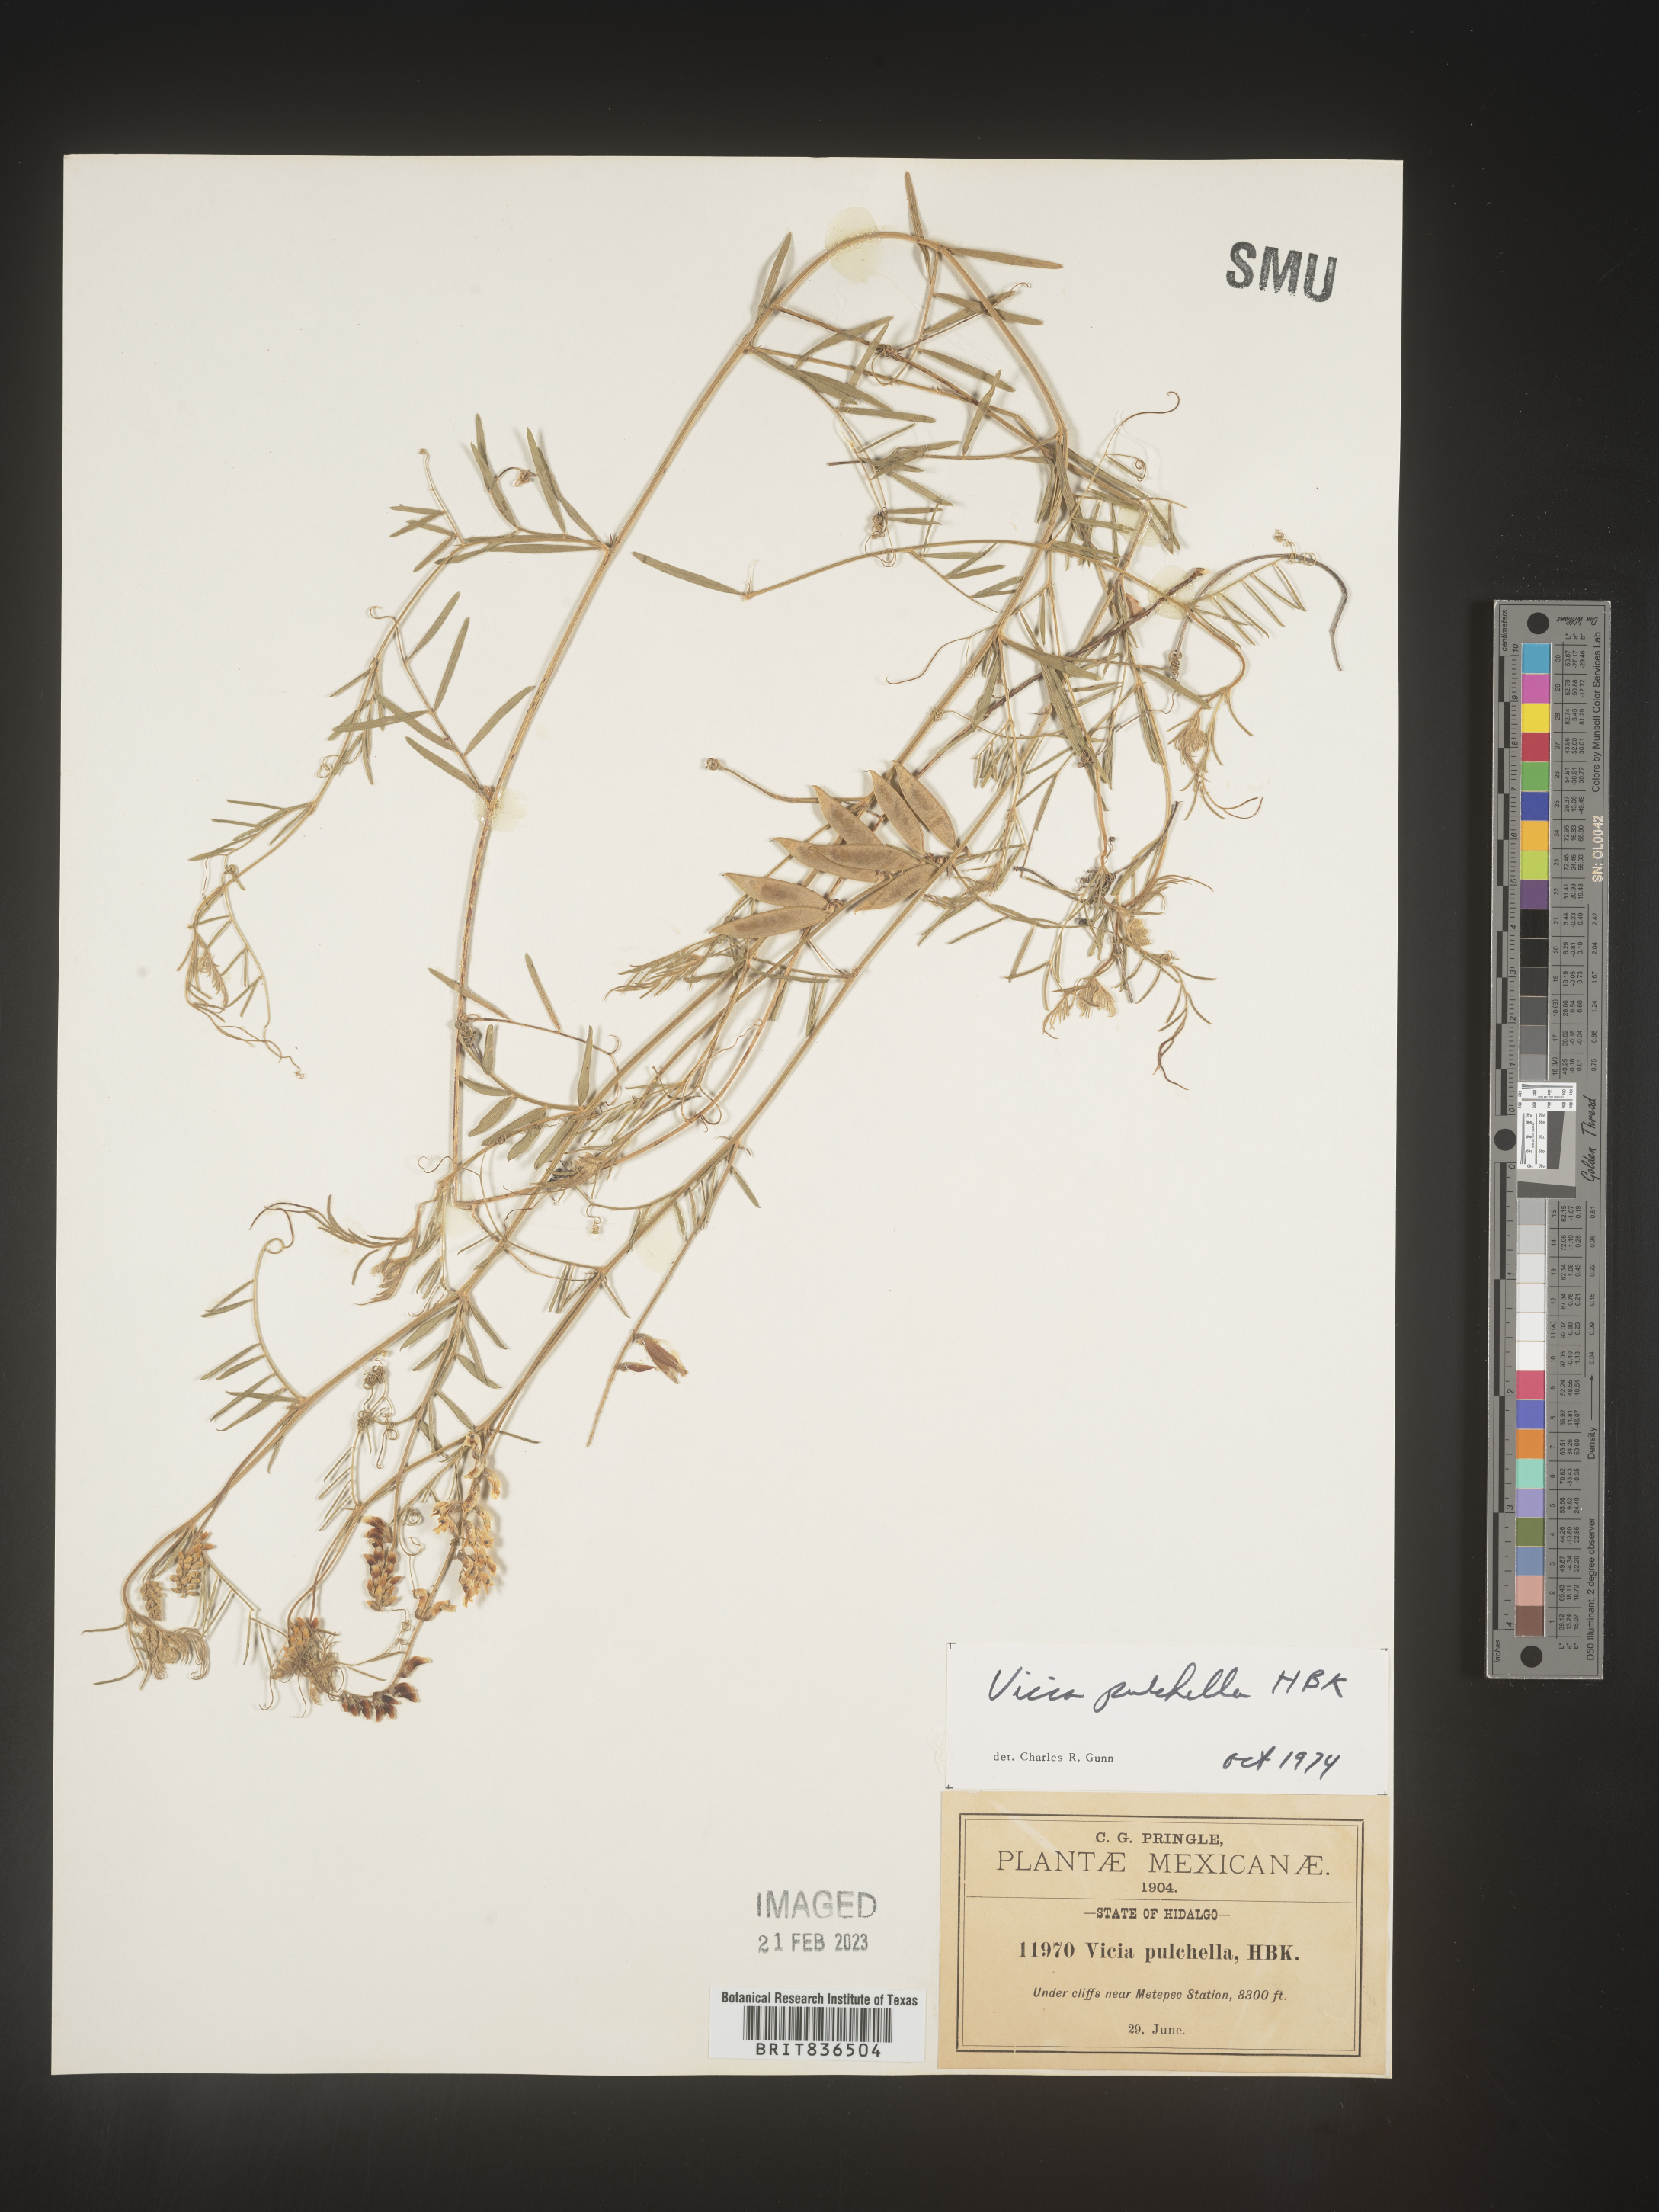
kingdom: Plantae
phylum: Tracheophyta
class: Magnoliopsida
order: Fabales
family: Fabaceae
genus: Vicia
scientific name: Vicia
